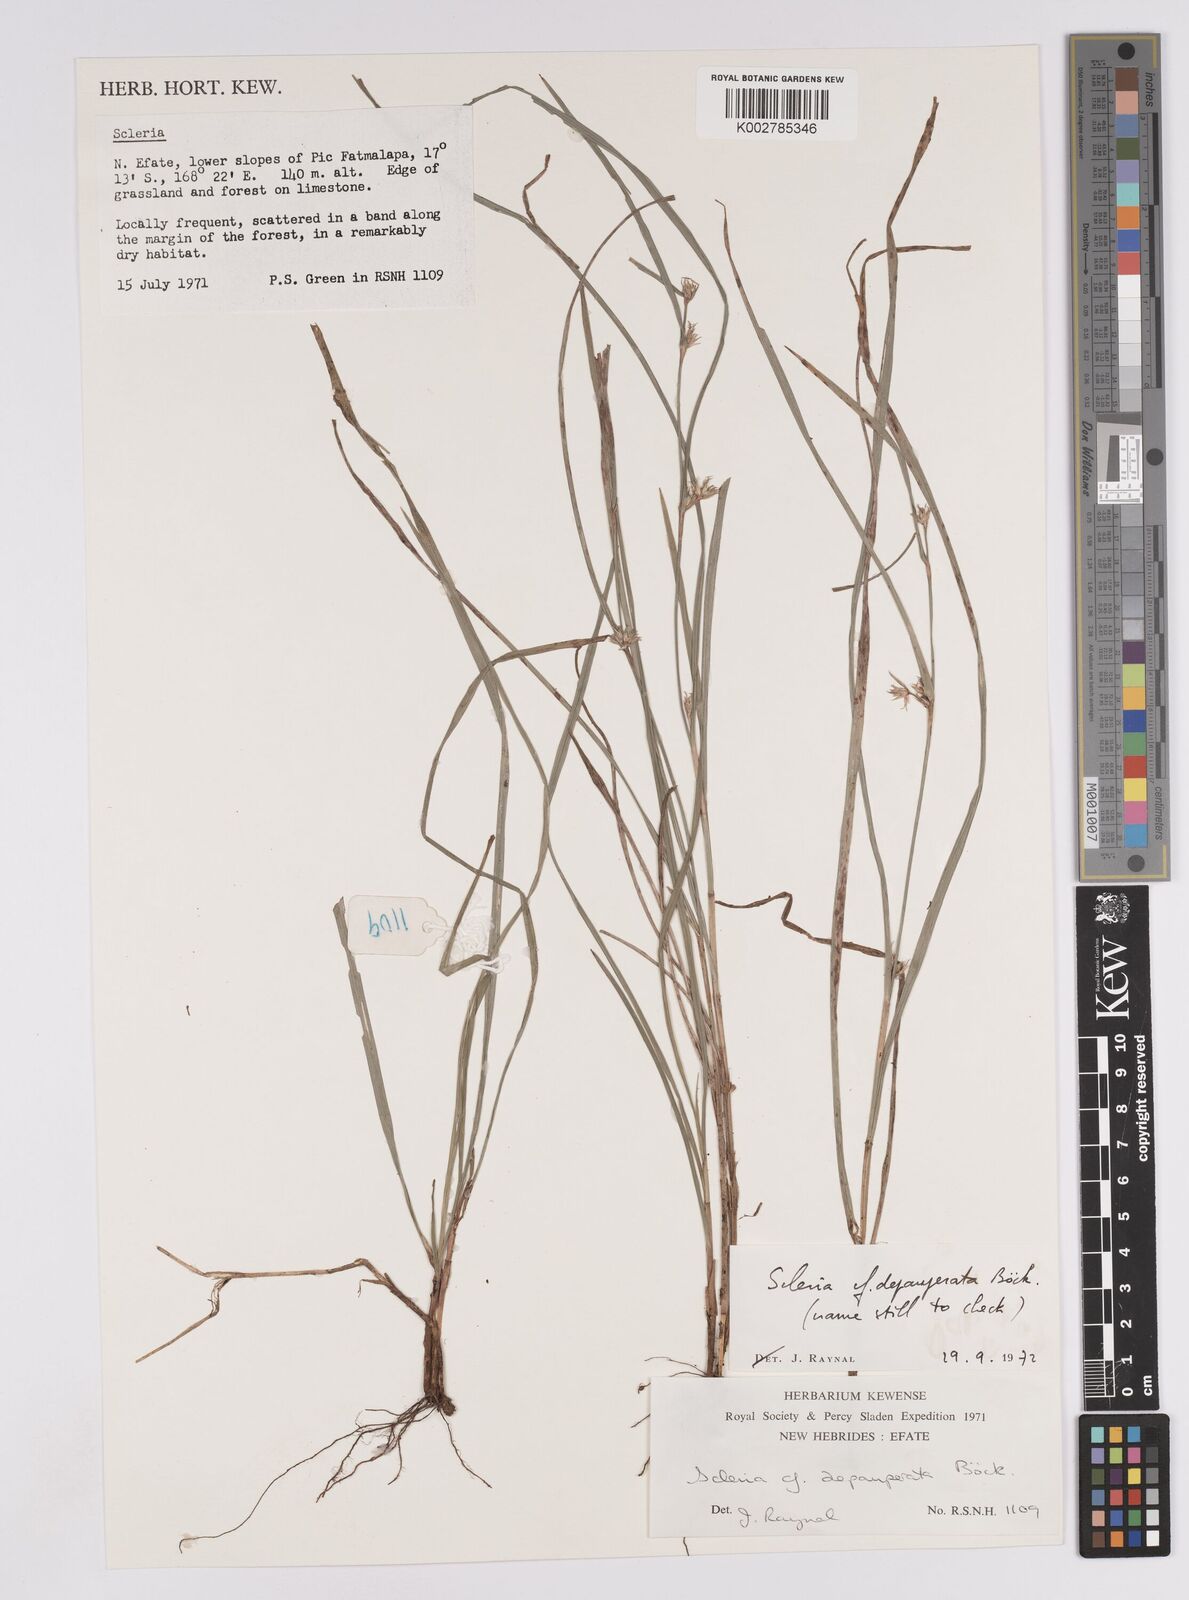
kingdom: Plantae
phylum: Tracheophyta
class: Liliopsida
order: Poales
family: Cyperaceae
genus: Scleria
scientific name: Scleria depauperata
